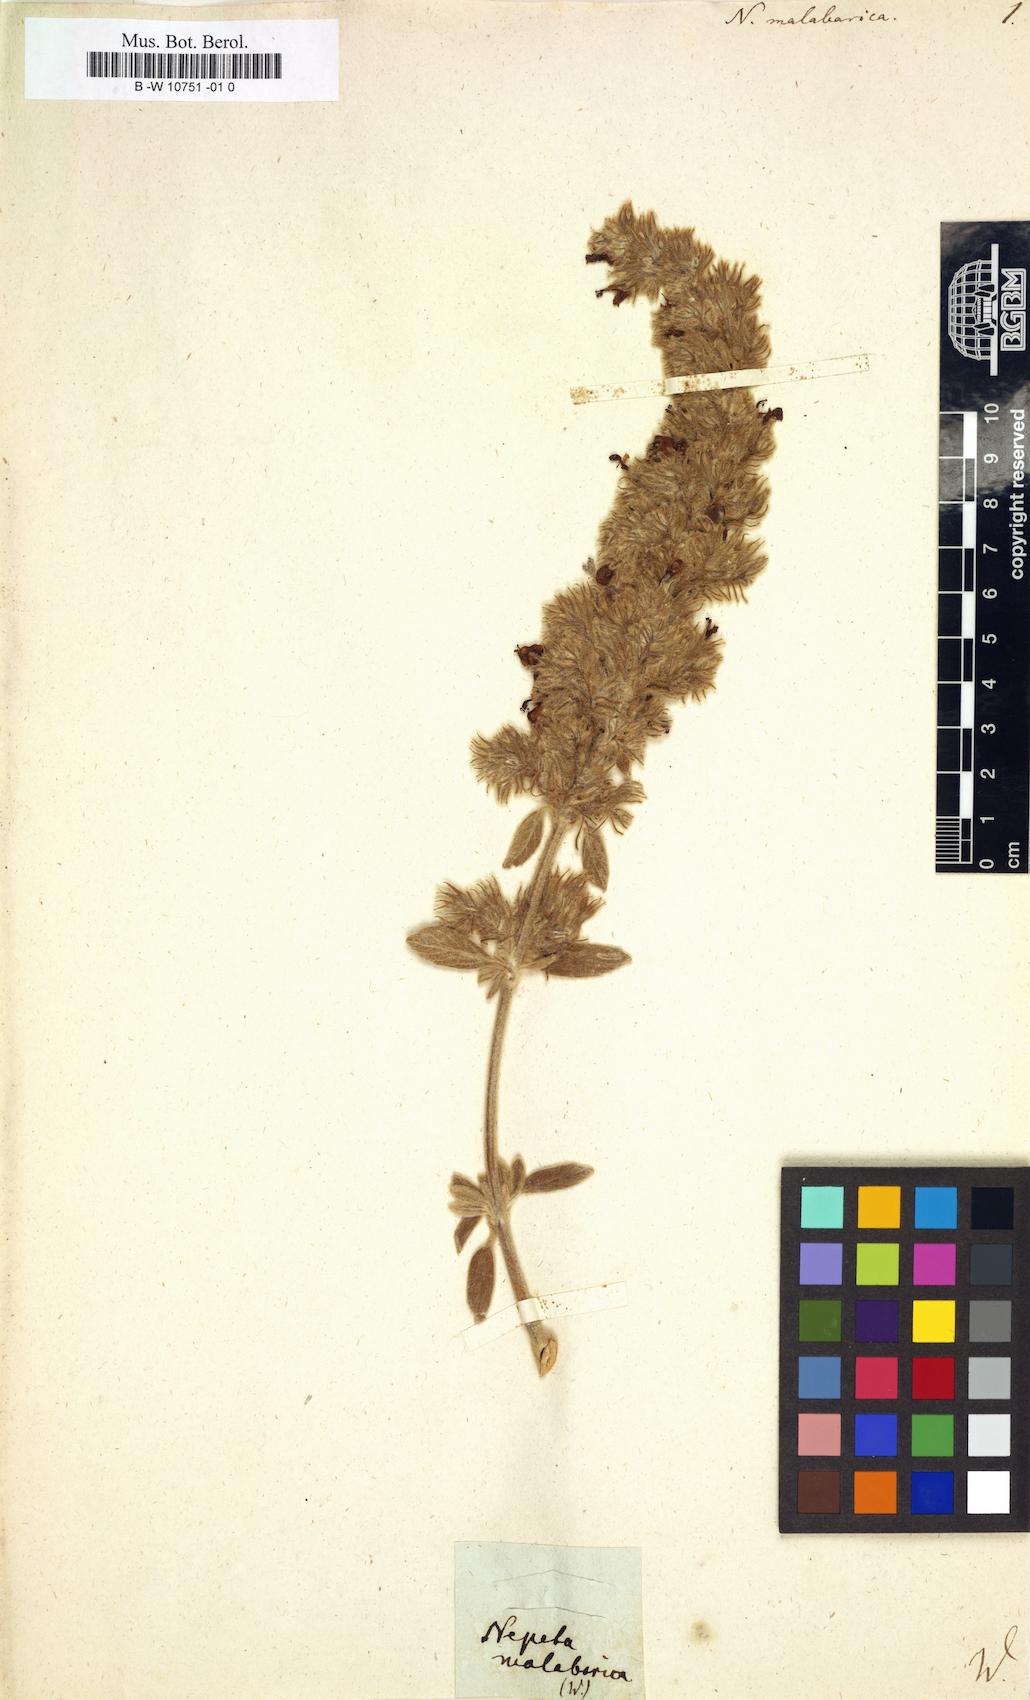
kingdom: Plantae
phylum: Tracheophyta
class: Magnoliopsida
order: Lamiales
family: Lamiaceae
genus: Anisomeles
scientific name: Anisomeles malabarica
